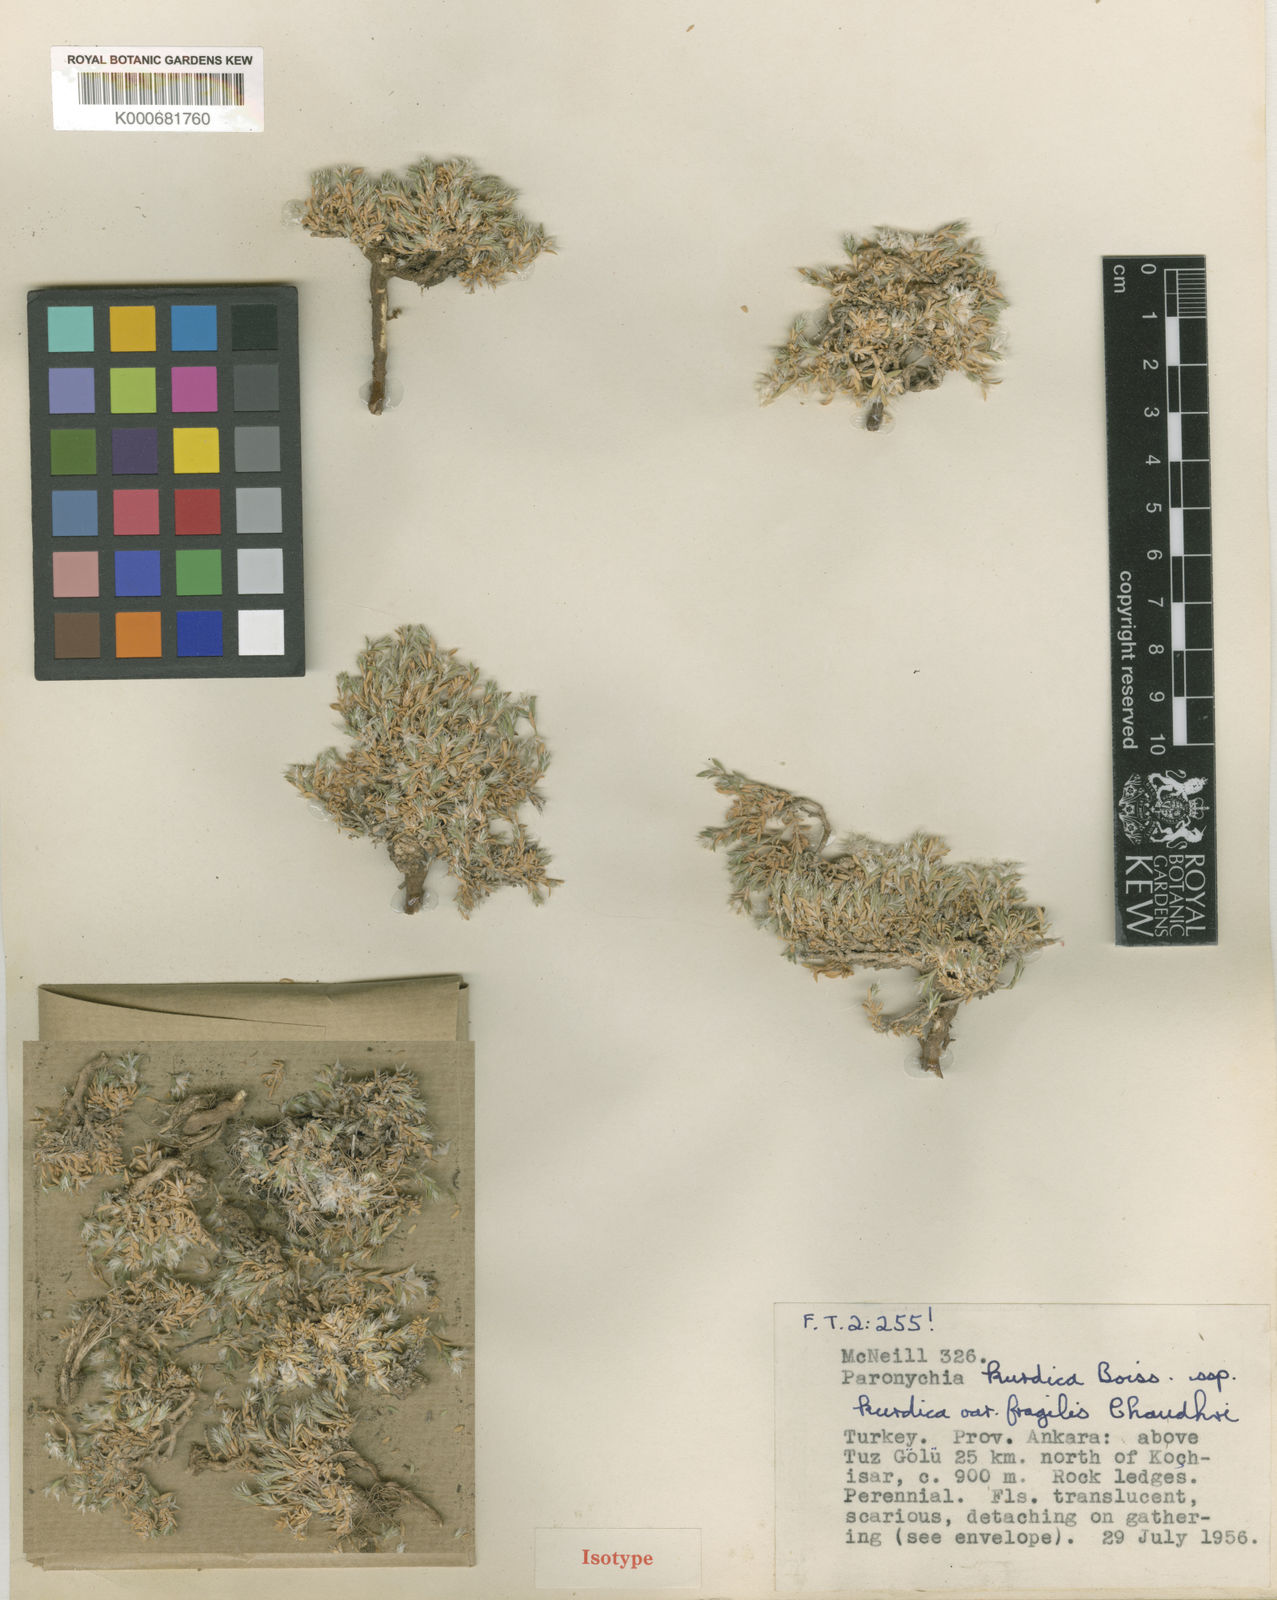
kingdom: Plantae
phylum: Tracheophyta
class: Magnoliopsida
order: Caryophyllales
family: Caryophyllaceae
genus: Paronychia
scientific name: Paronychia kurdica
